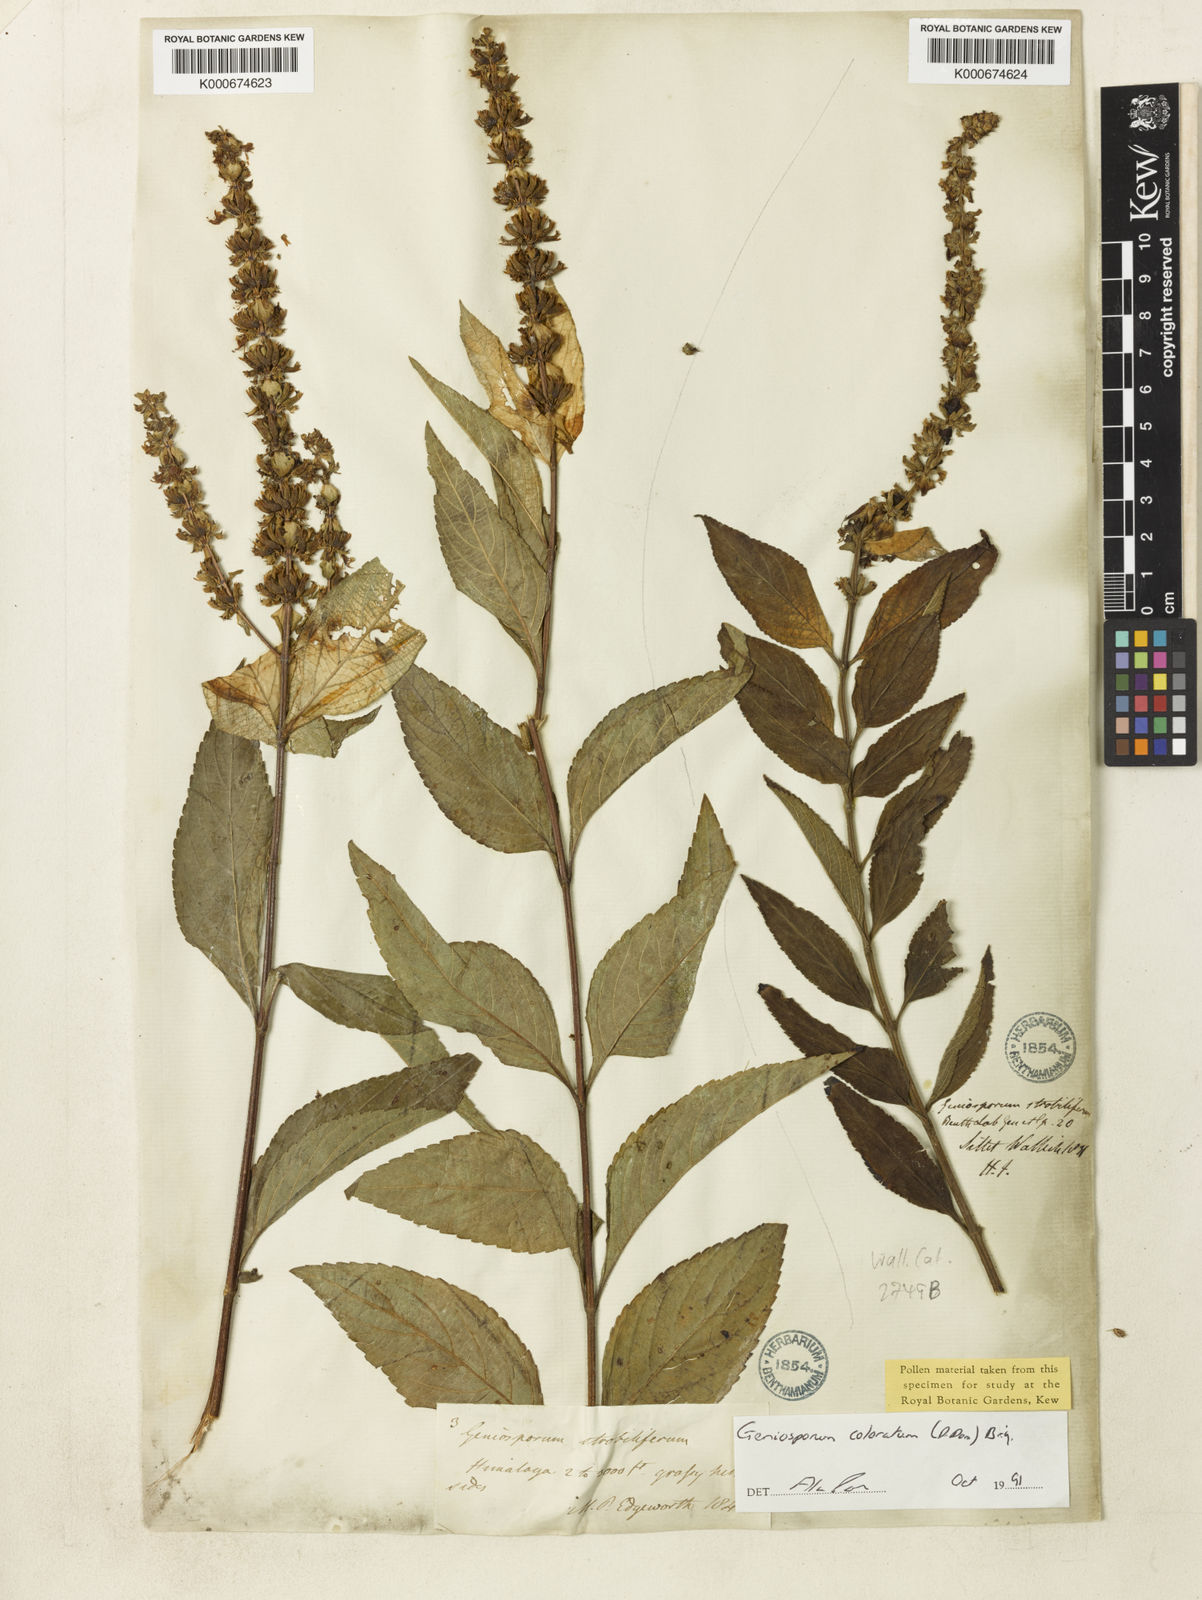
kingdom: Plantae
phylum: Tracheophyta
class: Magnoliopsida
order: Lamiales
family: Lamiaceae
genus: Platostoma
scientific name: Platostoma coloratum
